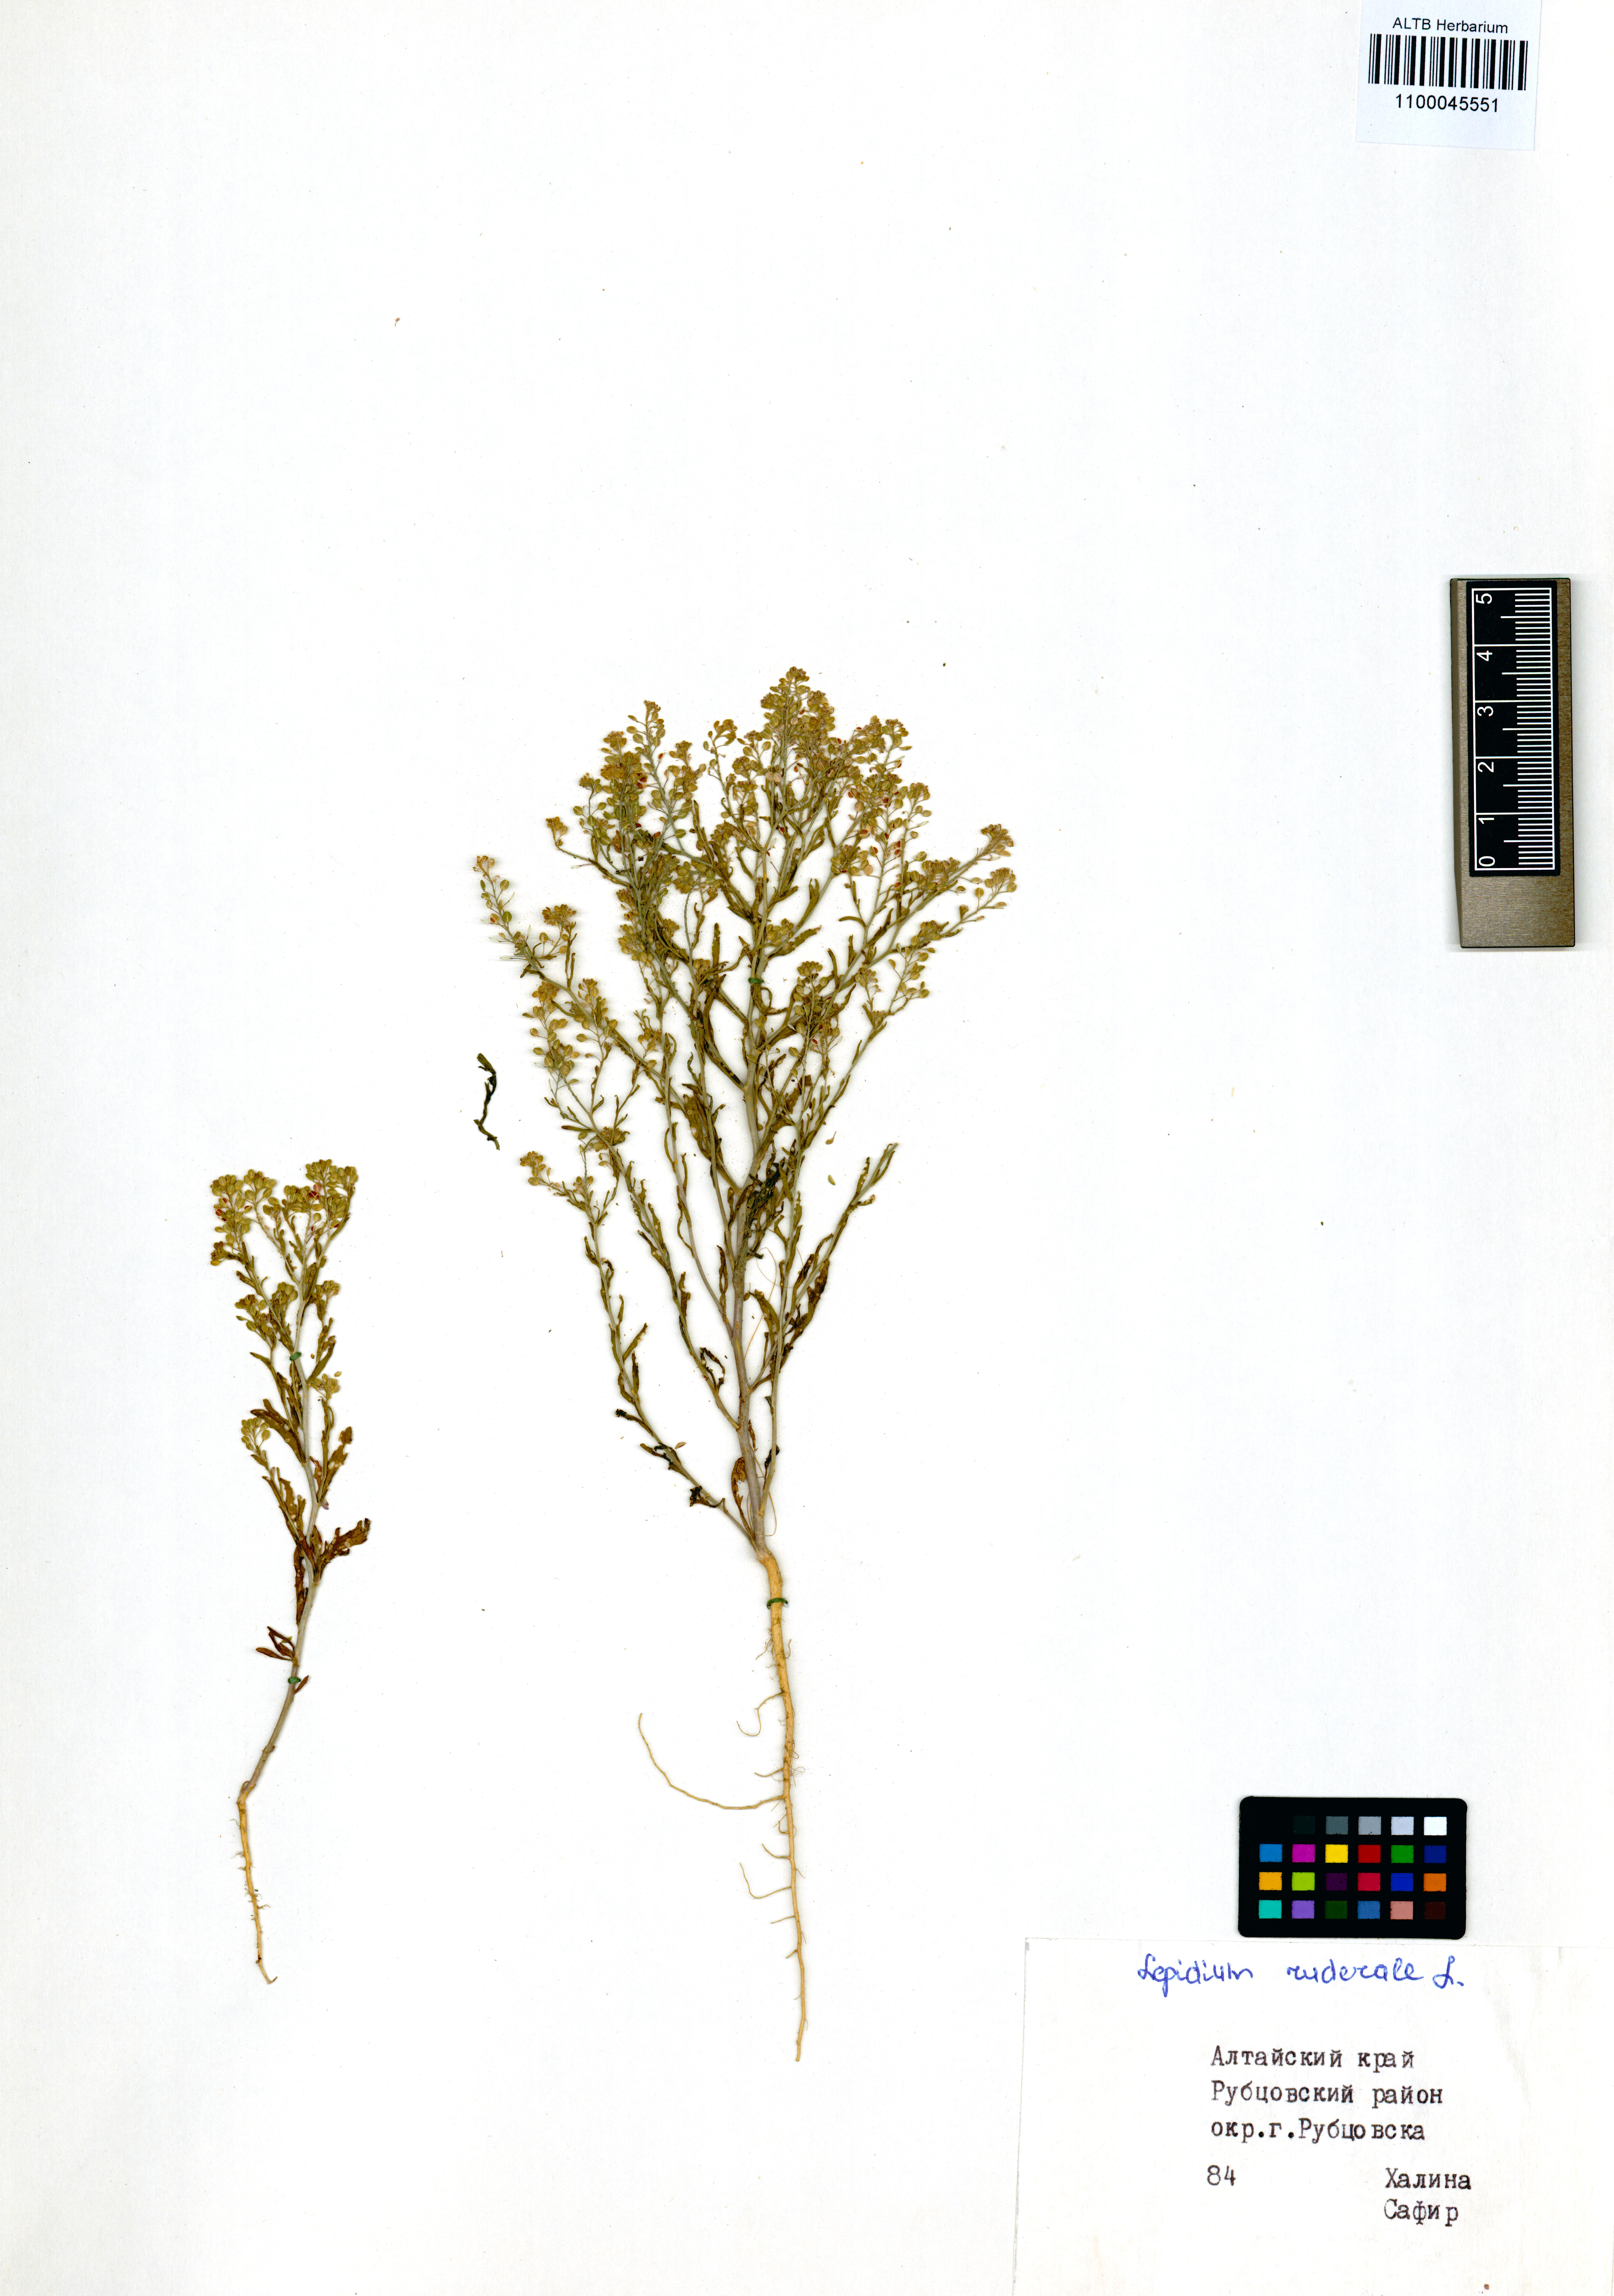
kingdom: Plantae
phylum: Tracheophyta
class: Magnoliopsida
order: Brassicales
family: Brassicaceae
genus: Lepidium
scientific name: Lepidium ruderale
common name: Narrow-leaved pepperwort
